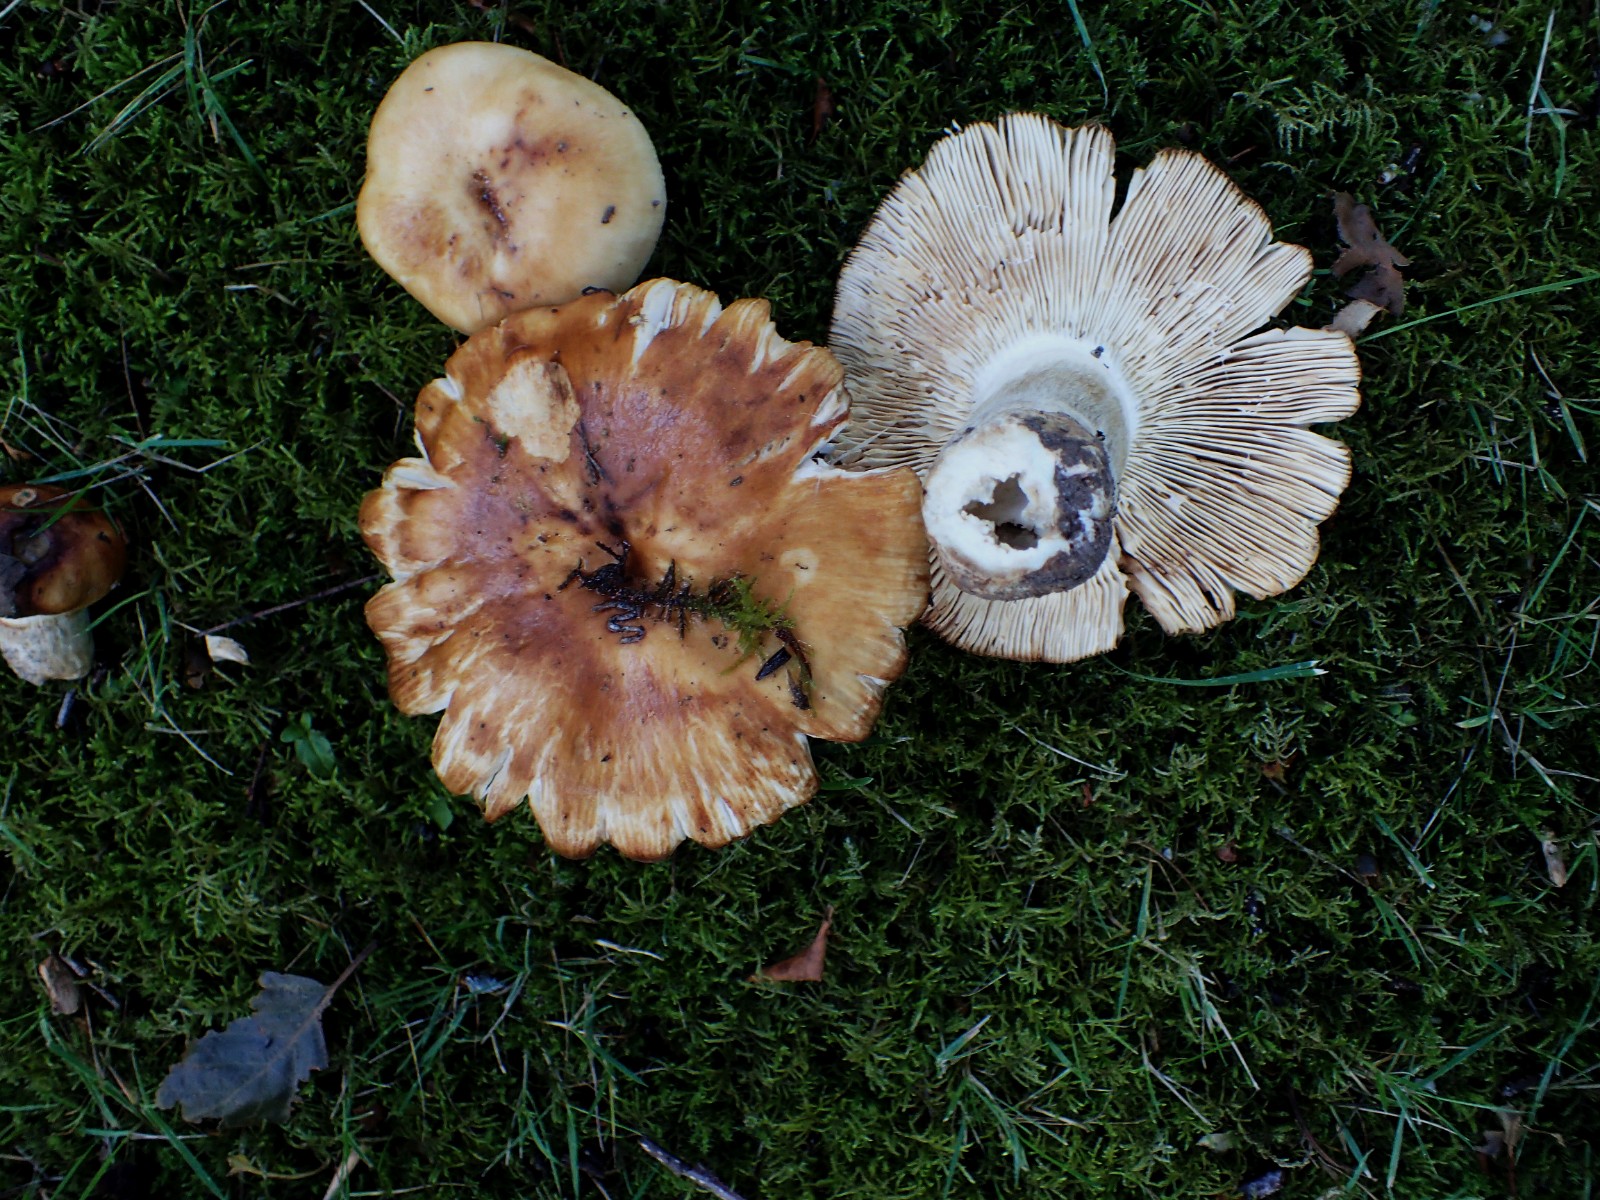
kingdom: Fungi
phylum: Basidiomycota
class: Agaricomycetes
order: Russulales
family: Russulaceae
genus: Russula
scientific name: Russula foetens
